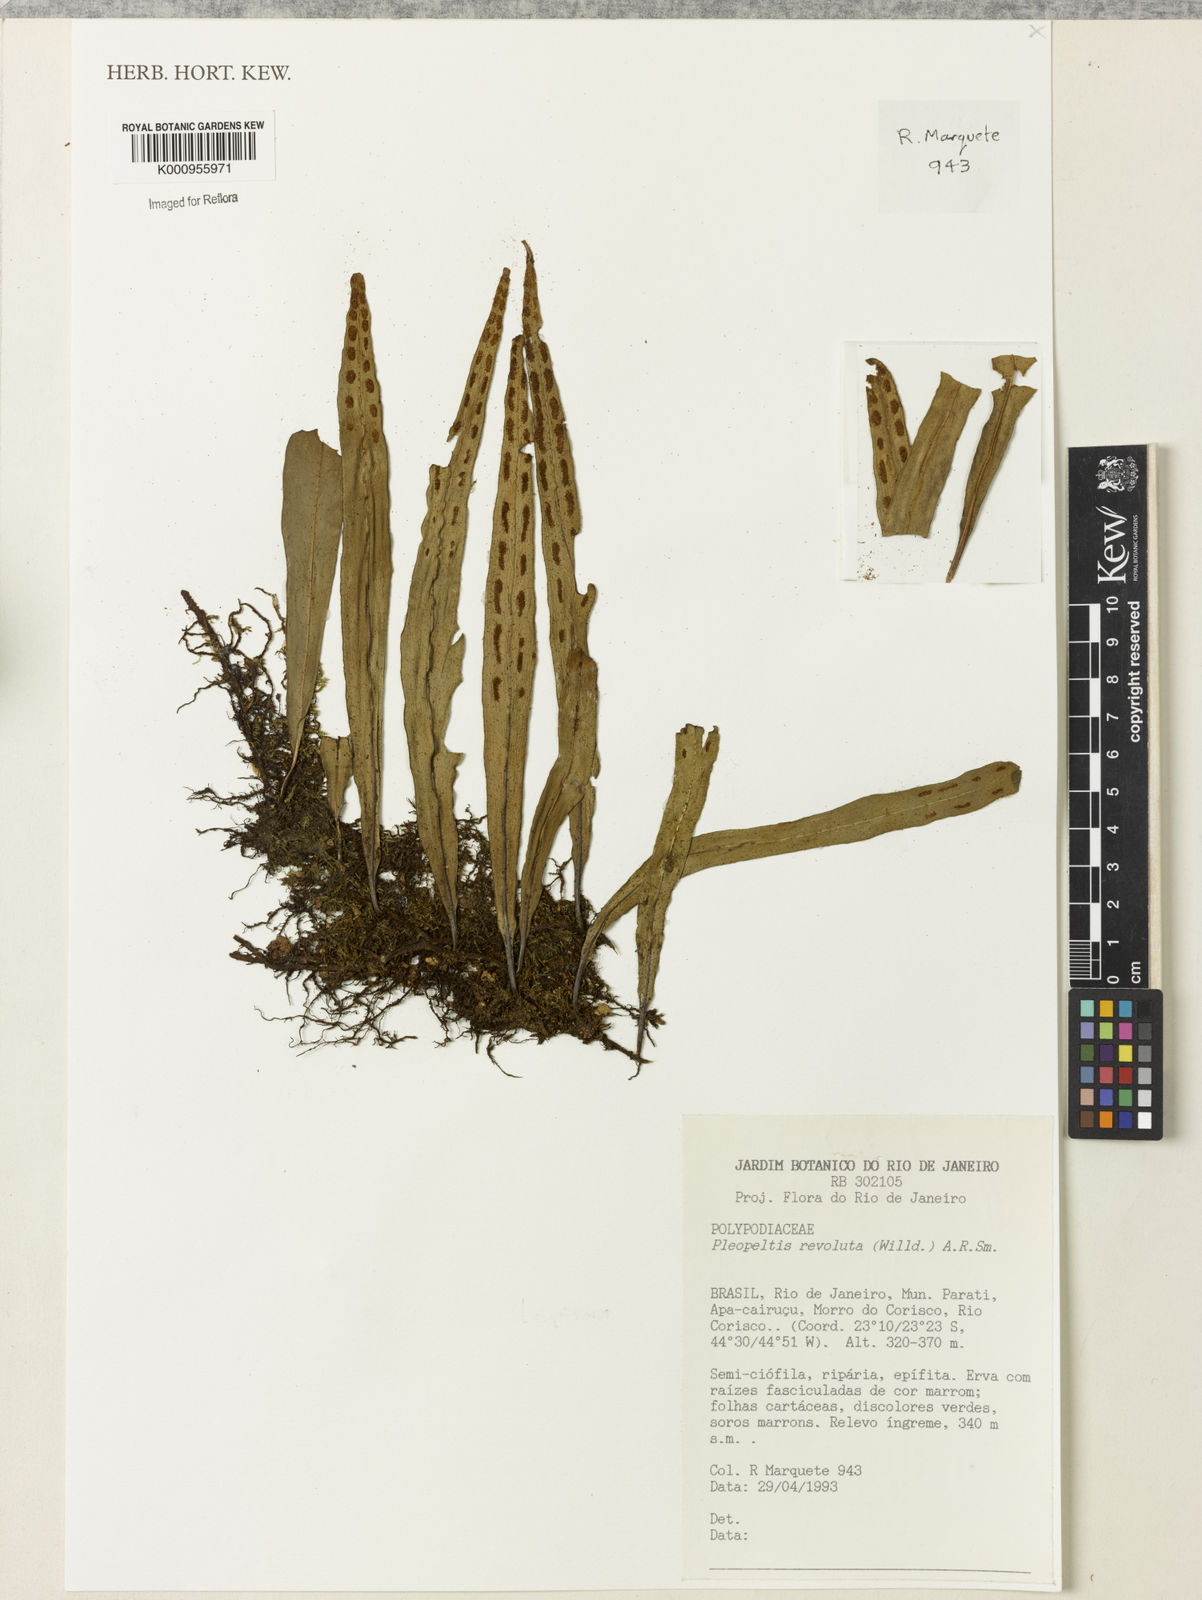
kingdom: Plantae
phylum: Tracheophyta
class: Polypodiopsida
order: Polypodiales
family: Polypodiaceae
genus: Pleopeltis
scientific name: Pleopeltis
